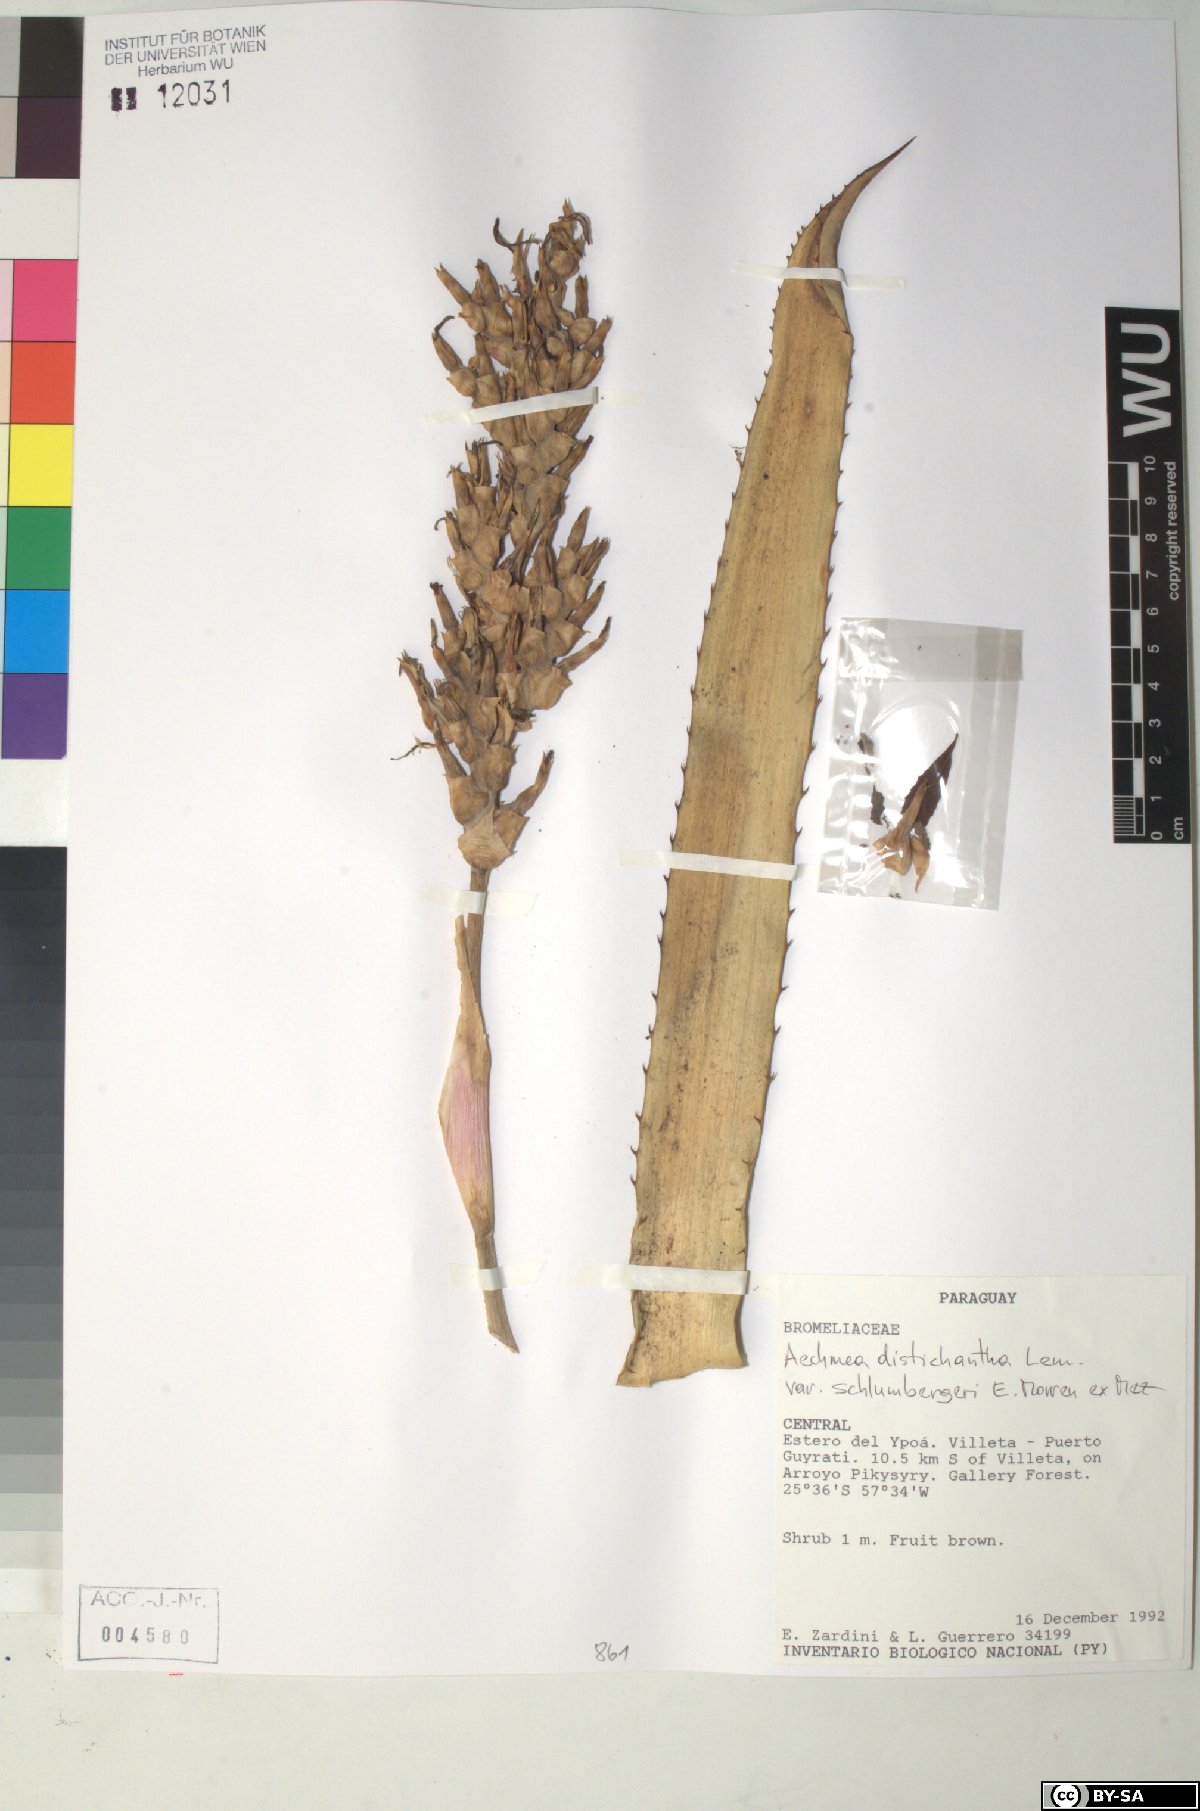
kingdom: Plantae
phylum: Tracheophyta
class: Liliopsida
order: Poales
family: Bromeliaceae
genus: Aechmea
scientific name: Aechmea distichantha
